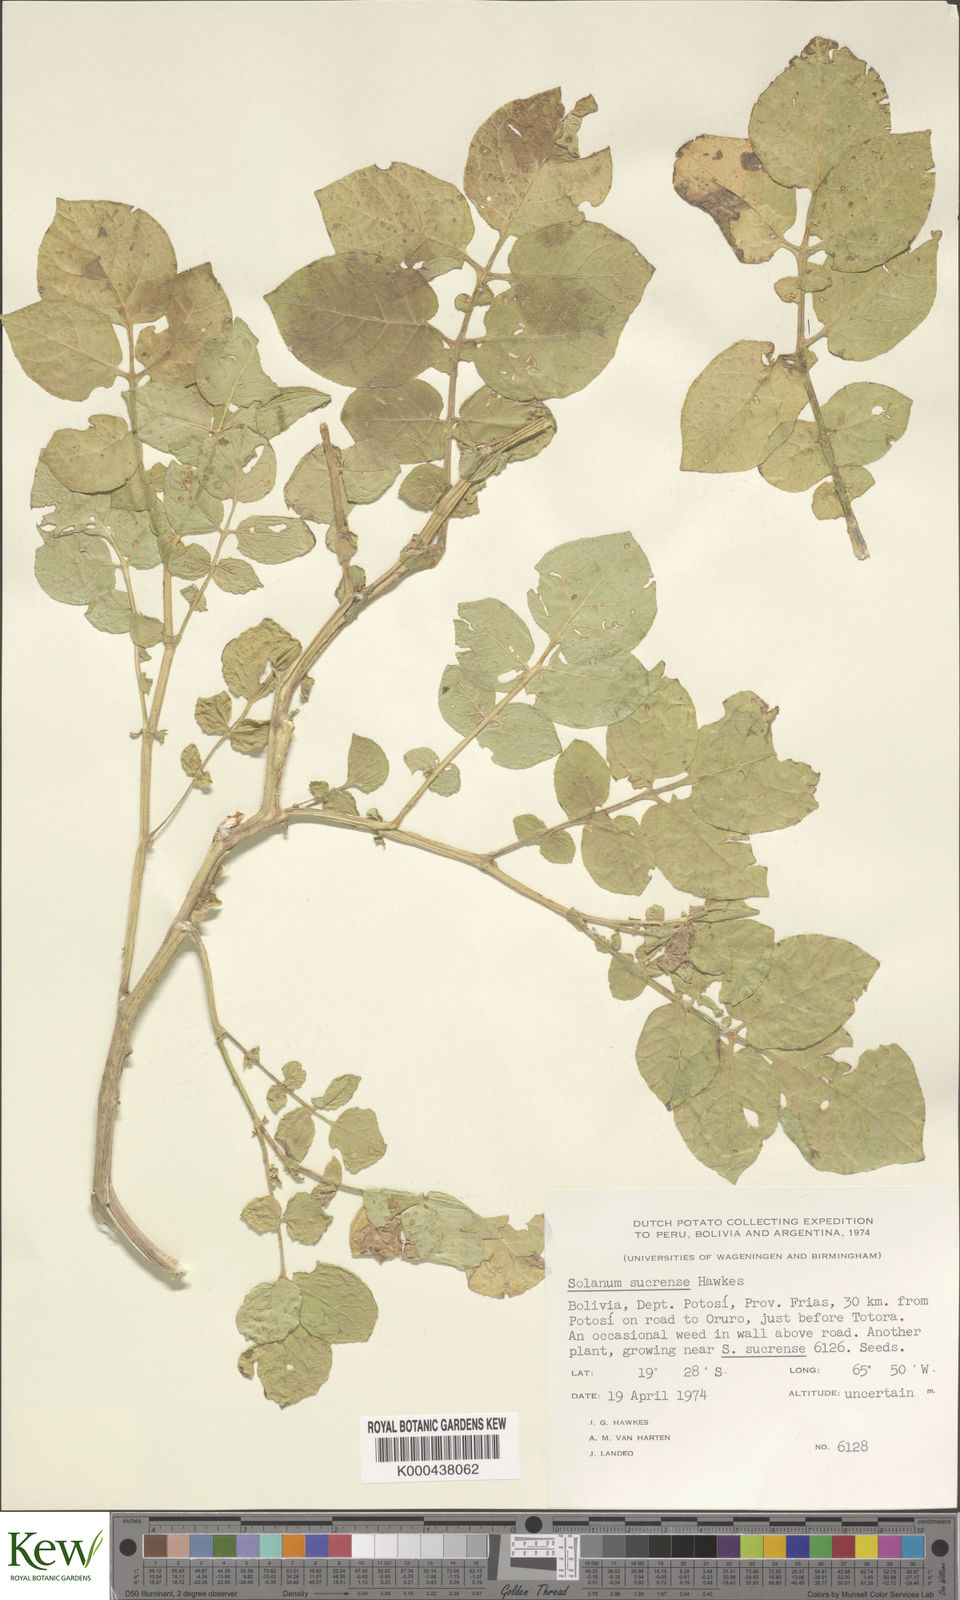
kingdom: Plantae
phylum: Tracheophyta
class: Magnoliopsida
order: Solanales
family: Solanaceae
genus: Solanum
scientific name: Solanum brevicaule
